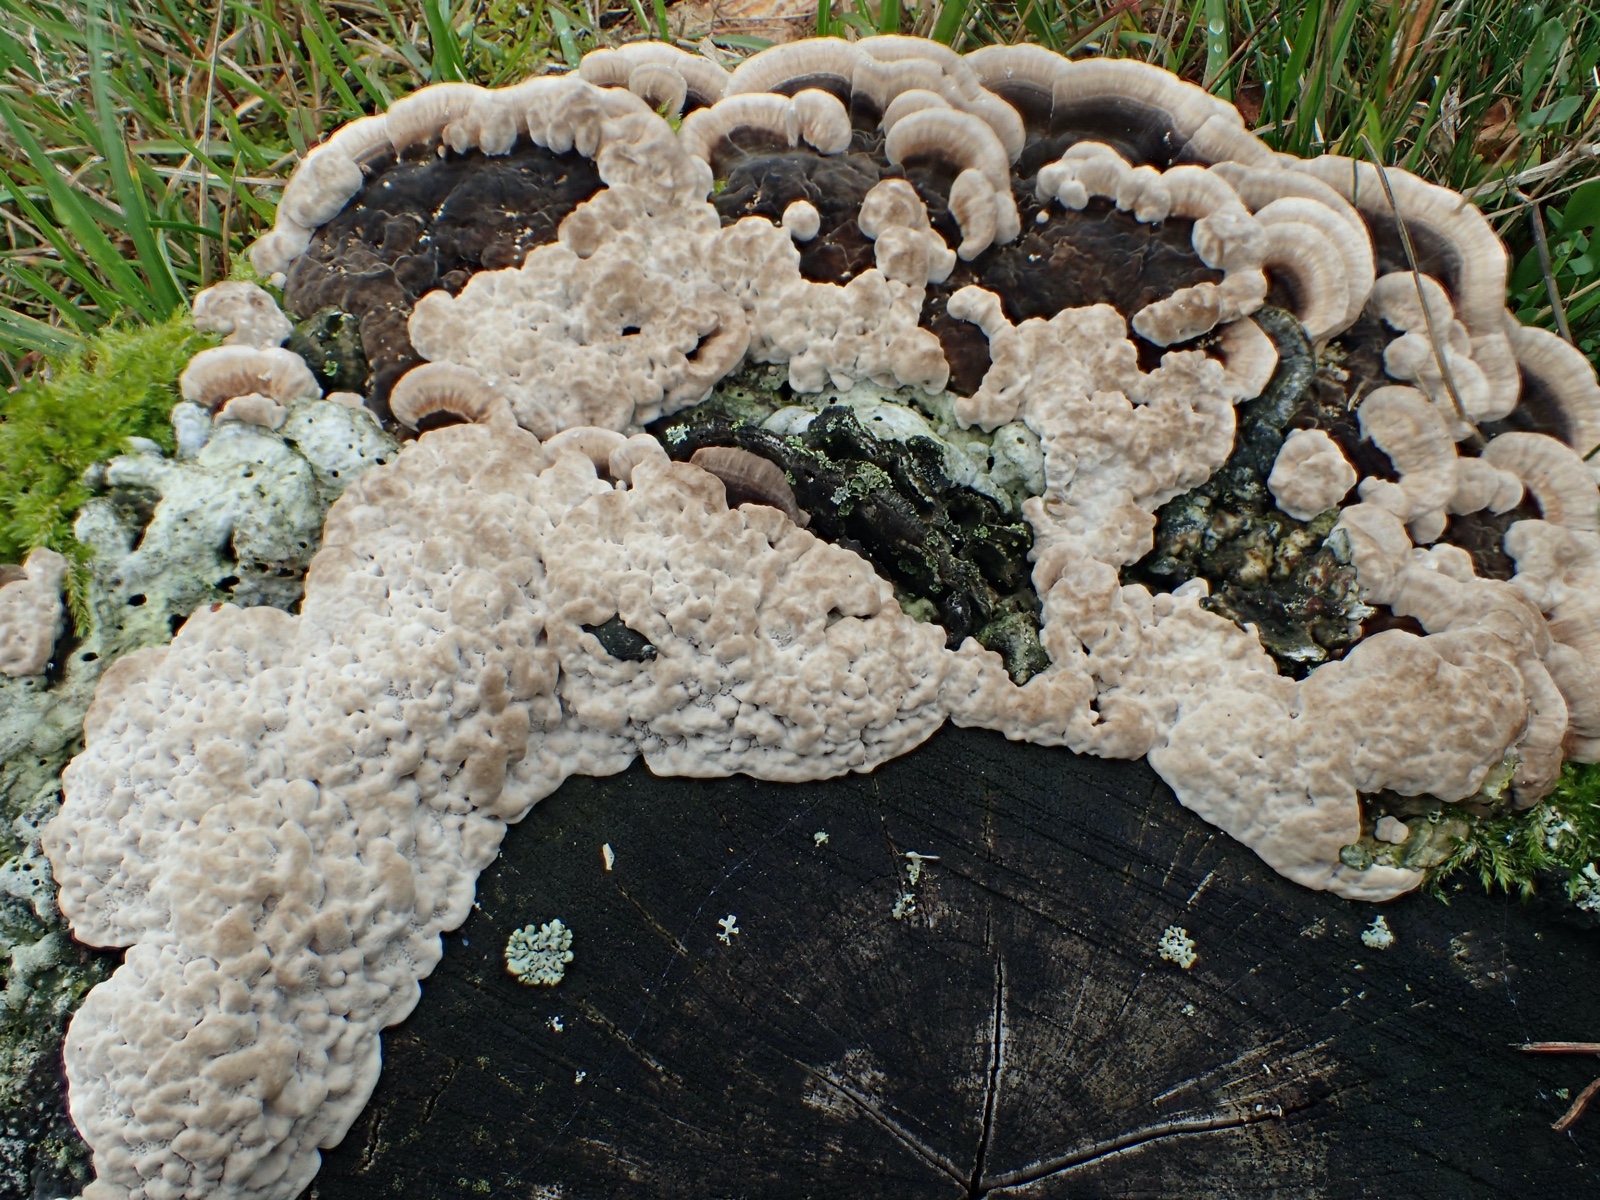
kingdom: Fungi
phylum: Basidiomycota
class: Agaricomycetes
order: Polyporales
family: Polyporaceae
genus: Trametes
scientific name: Trametes versicolor
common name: broget læderporesvamp
